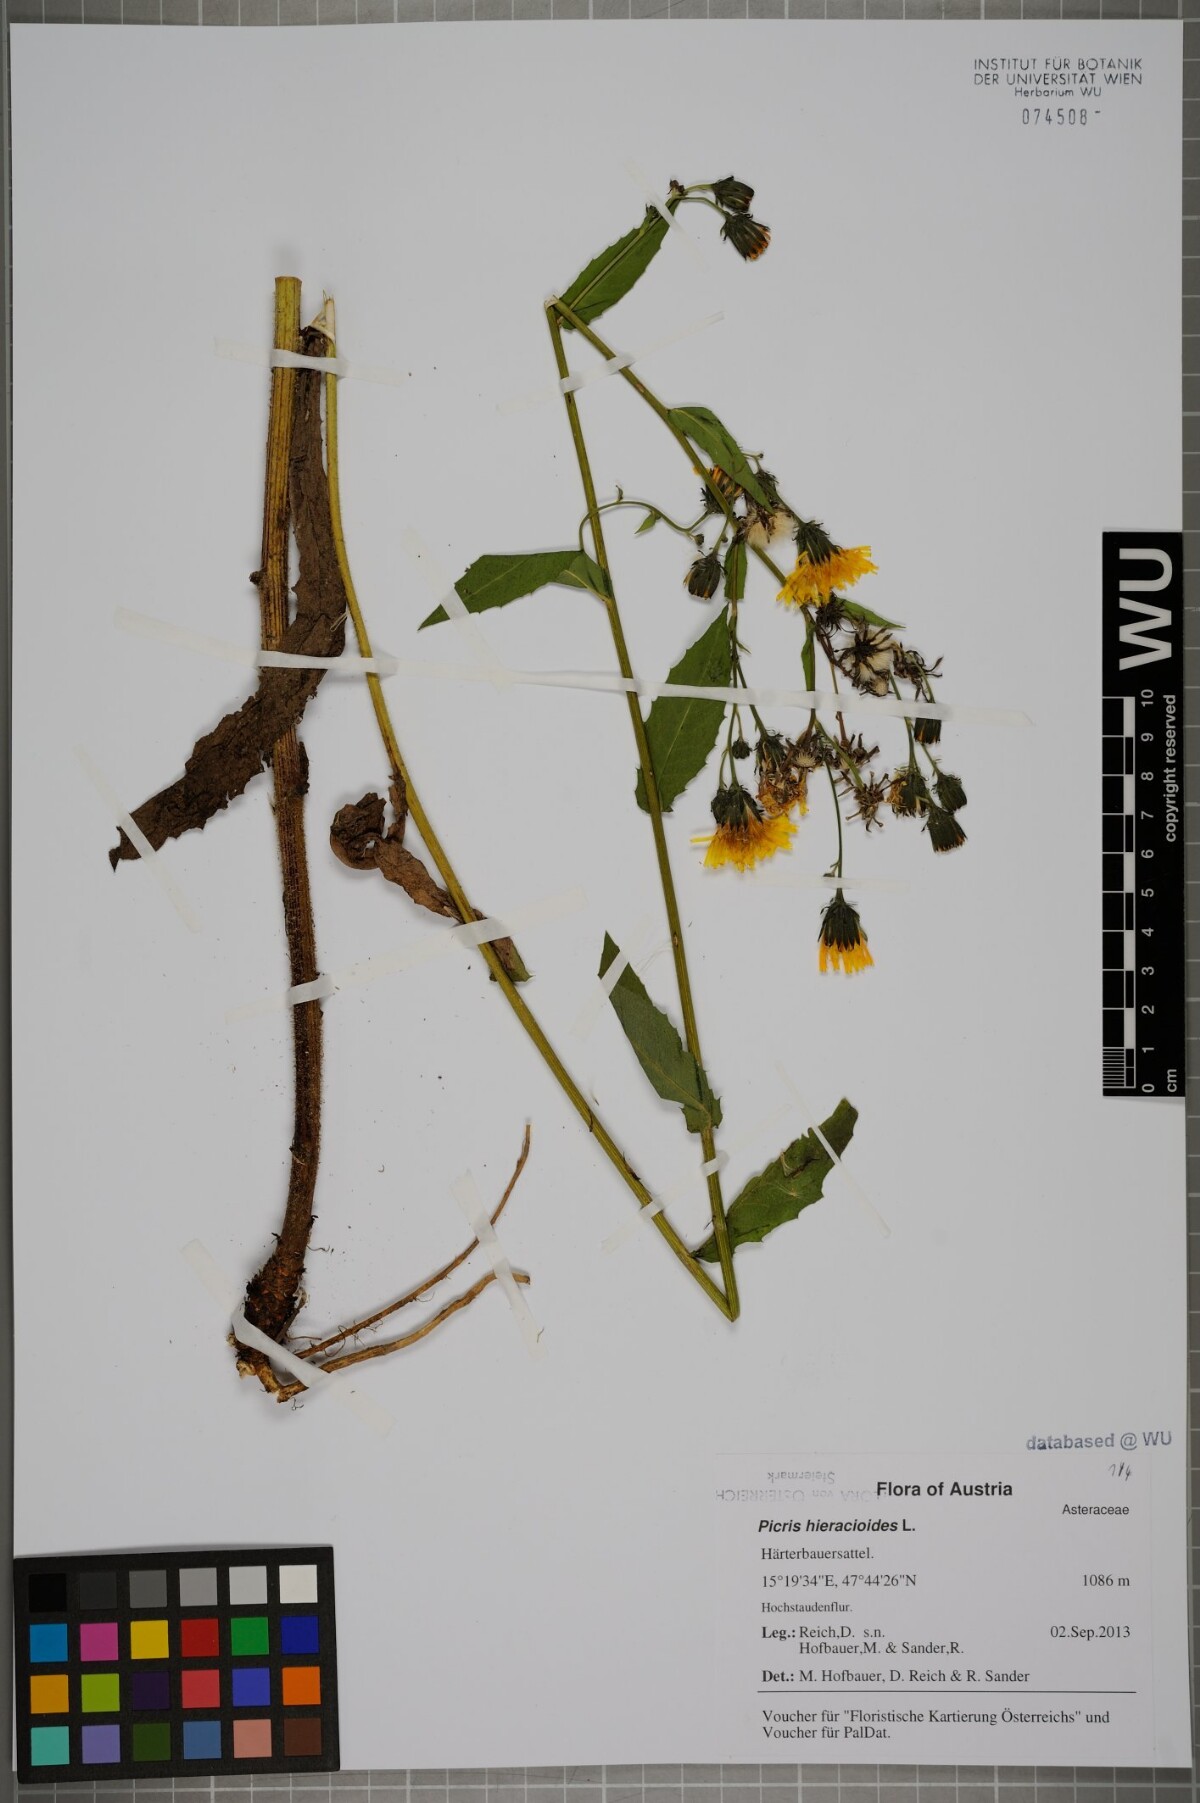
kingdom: Plantae
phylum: Tracheophyta
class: Magnoliopsida
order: Asterales
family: Asteraceae
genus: Picris
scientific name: Picris hieracioides
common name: Hawkweed oxtongue
